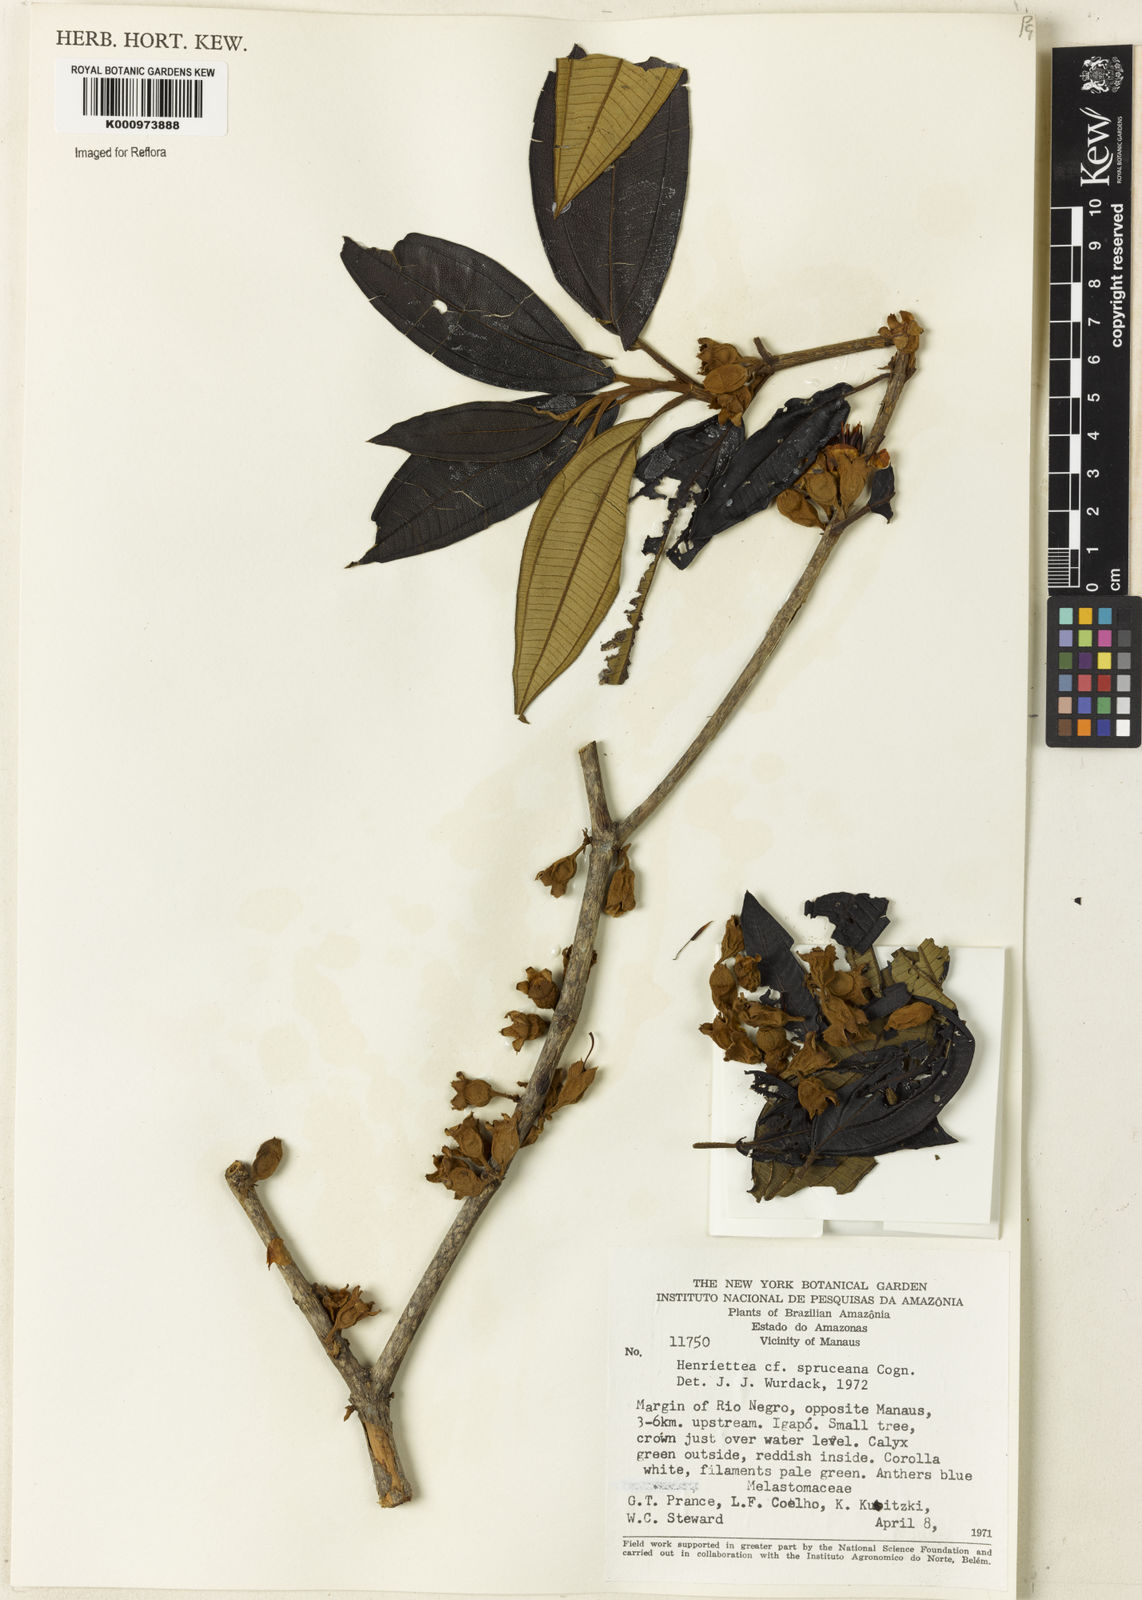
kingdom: Plantae
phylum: Tracheophyta
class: Magnoliopsida
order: Myrtales
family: Melastomataceae
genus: Henriettea
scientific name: Henriettea spruceana
